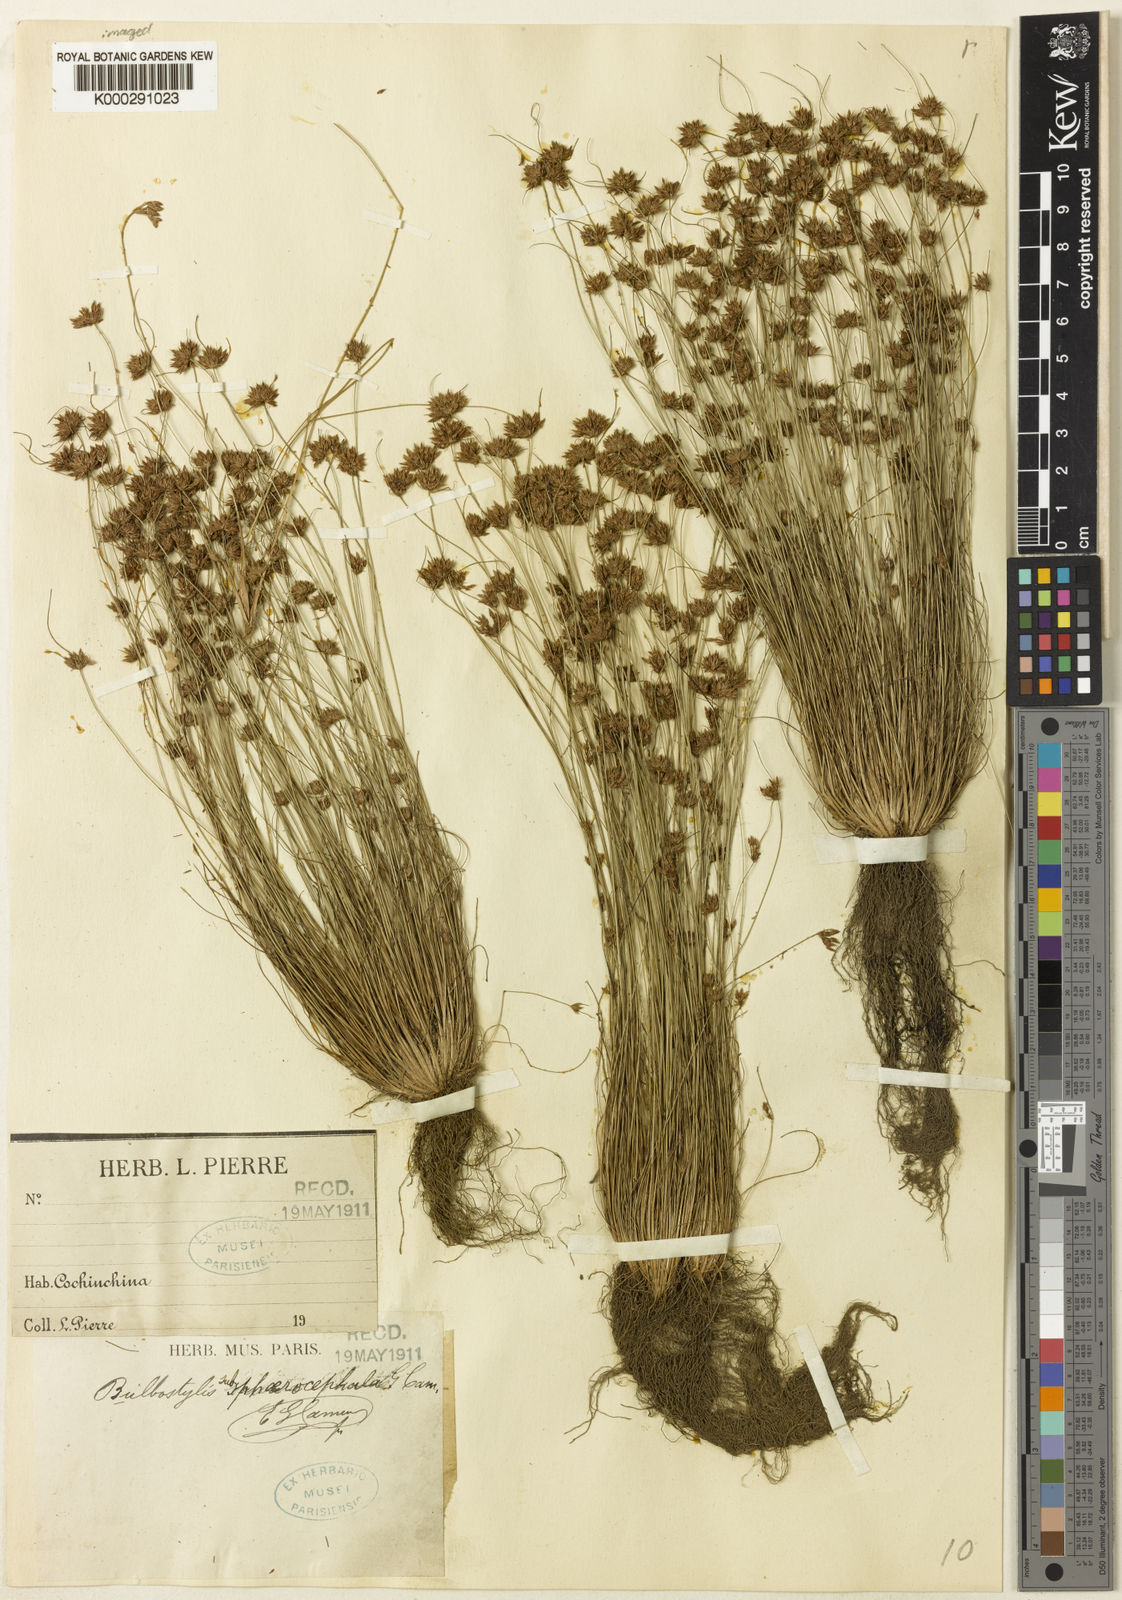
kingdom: Plantae
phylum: Tracheophyta
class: Liliopsida
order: Poales
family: Cyperaceae
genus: Bulbostylis
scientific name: Bulbostylis subsphaerocephala
